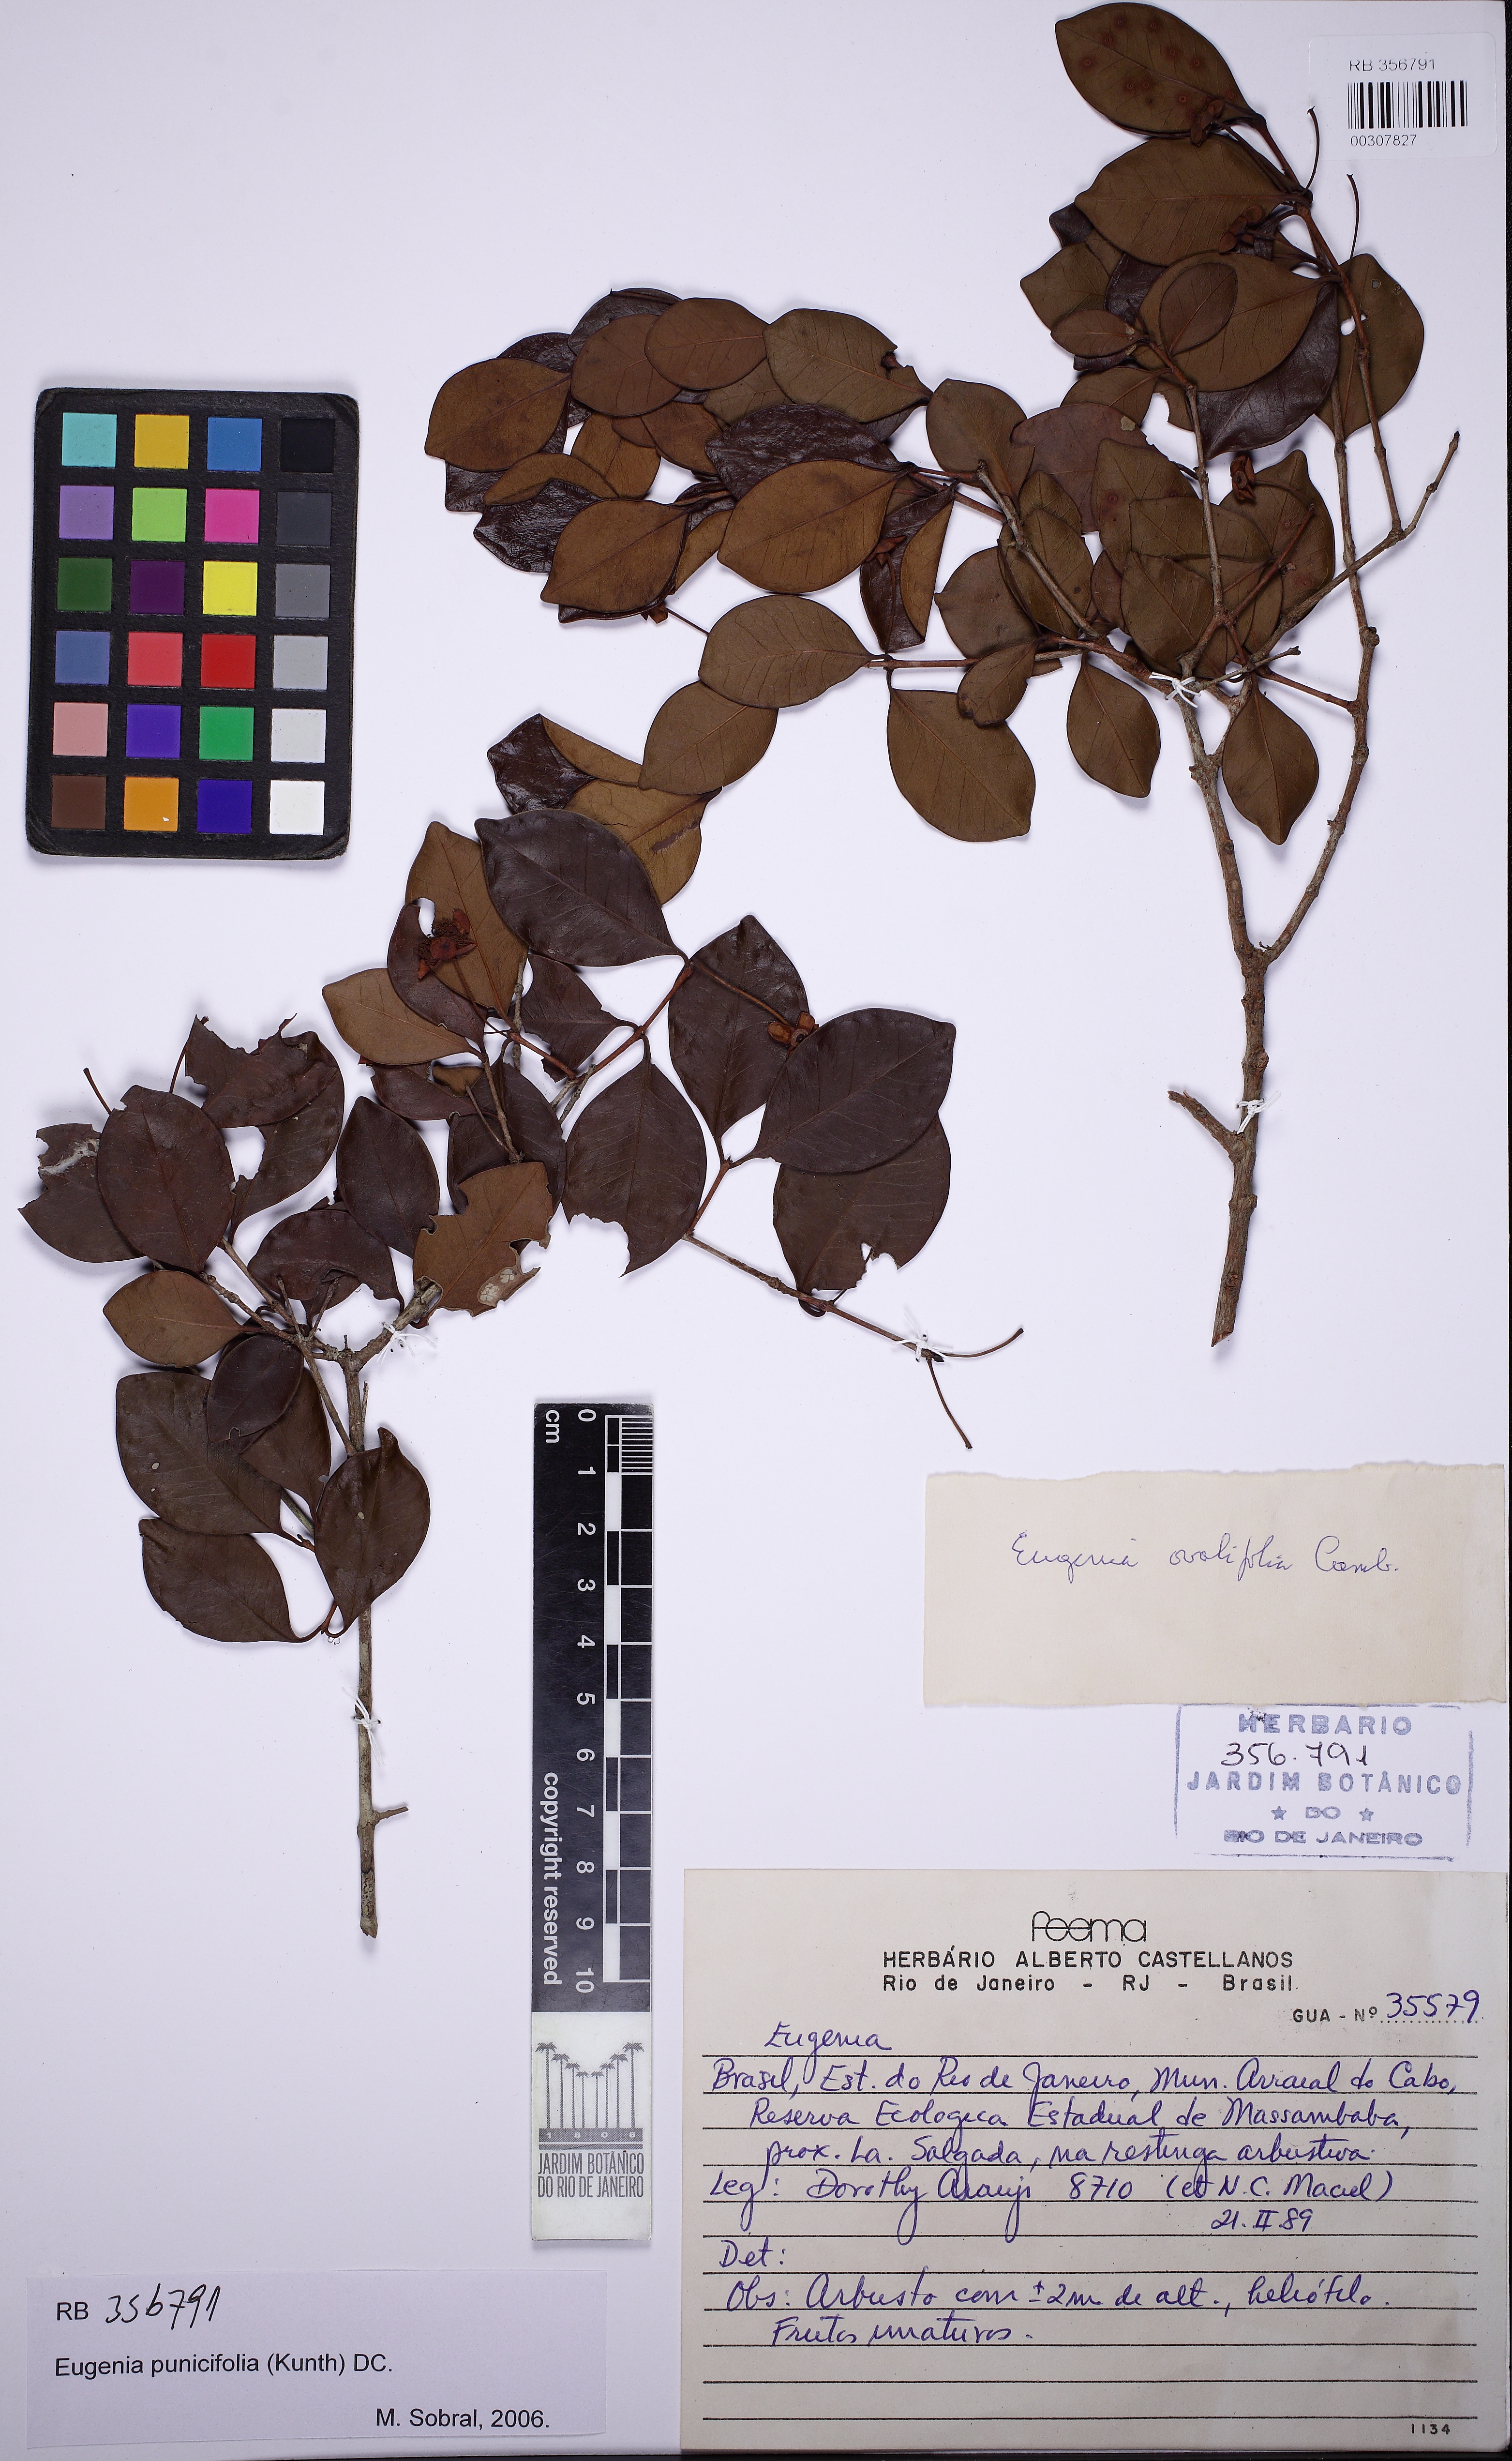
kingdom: Plantae
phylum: Tracheophyta
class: Magnoliopsida
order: Myrtales
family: Myrtaceae
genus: Eugenia
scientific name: Eugenia punicifolia
